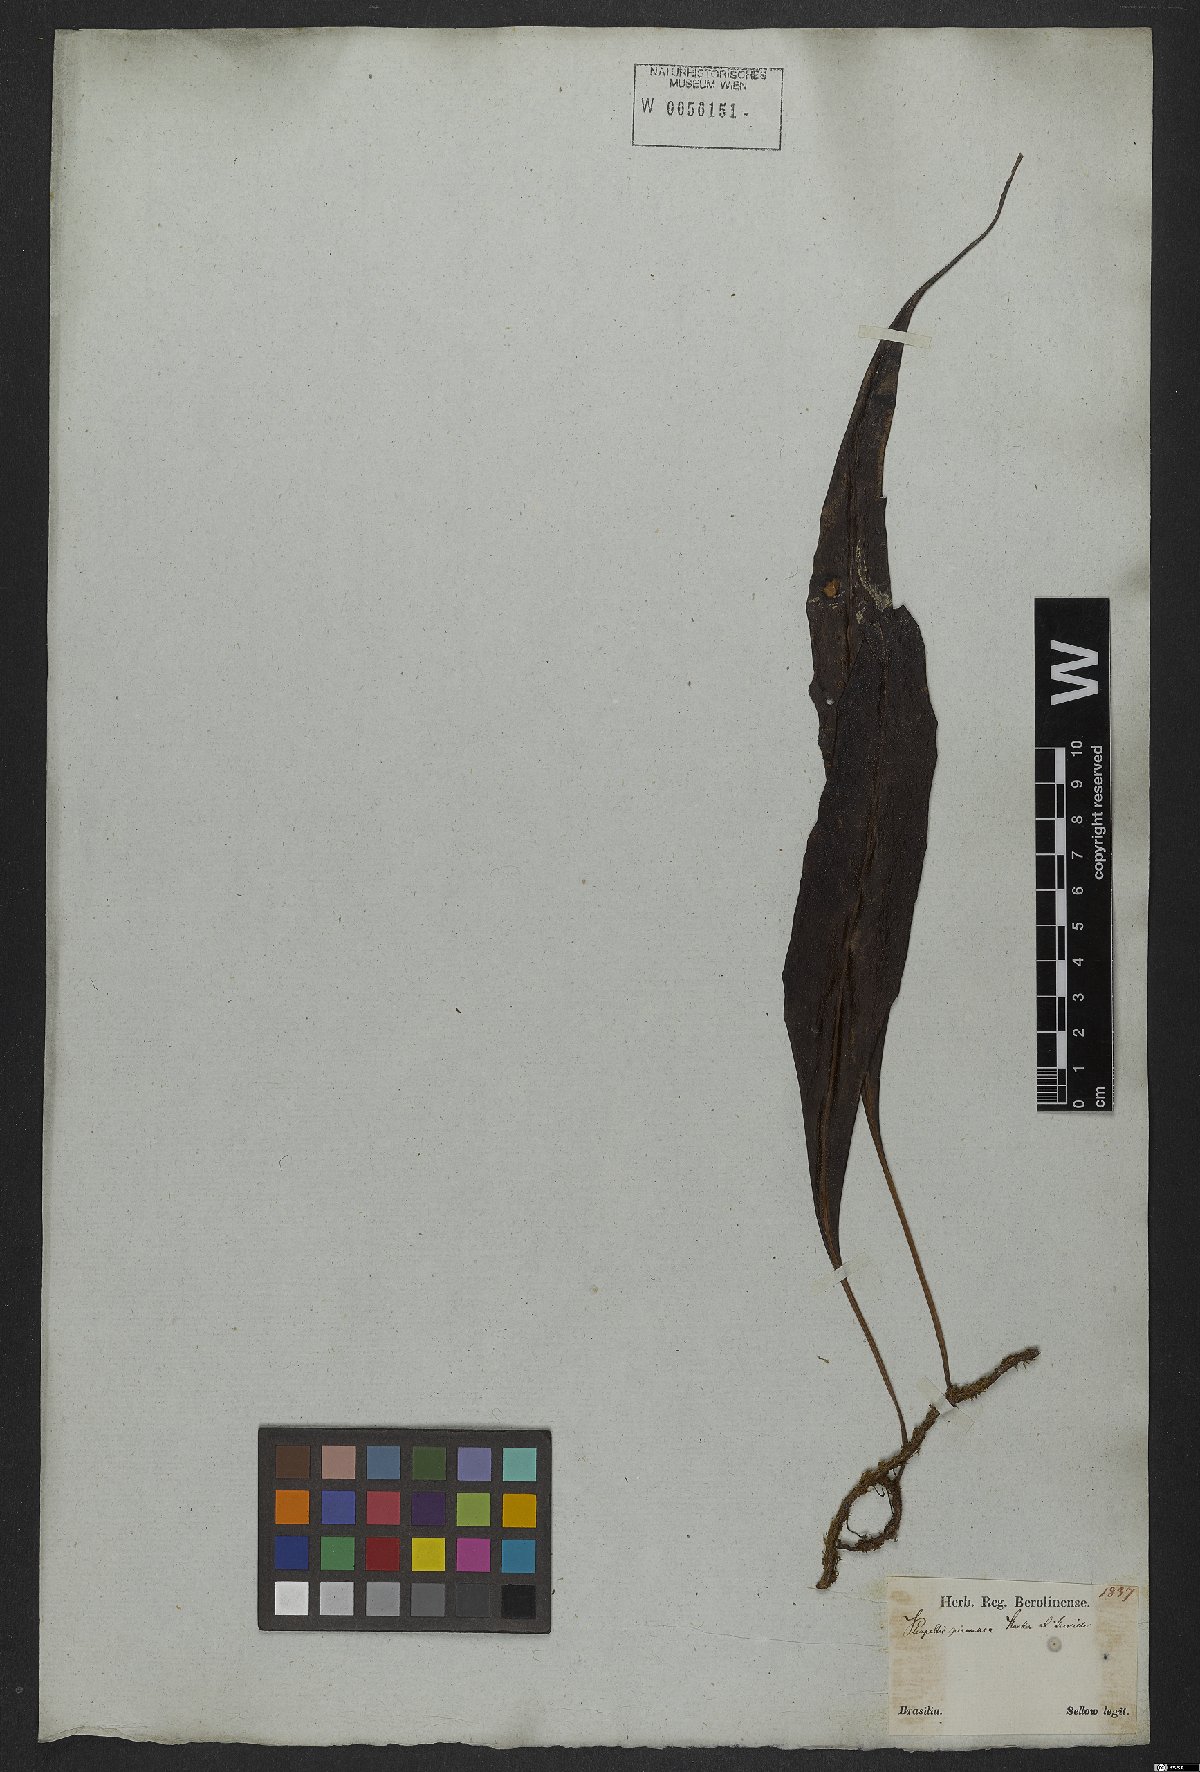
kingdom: Plantae
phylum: Tracheophyta
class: Polypodiopsida
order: Polypodiales
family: Polypodiaceae
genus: Microgramma
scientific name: Microgramma percussa
